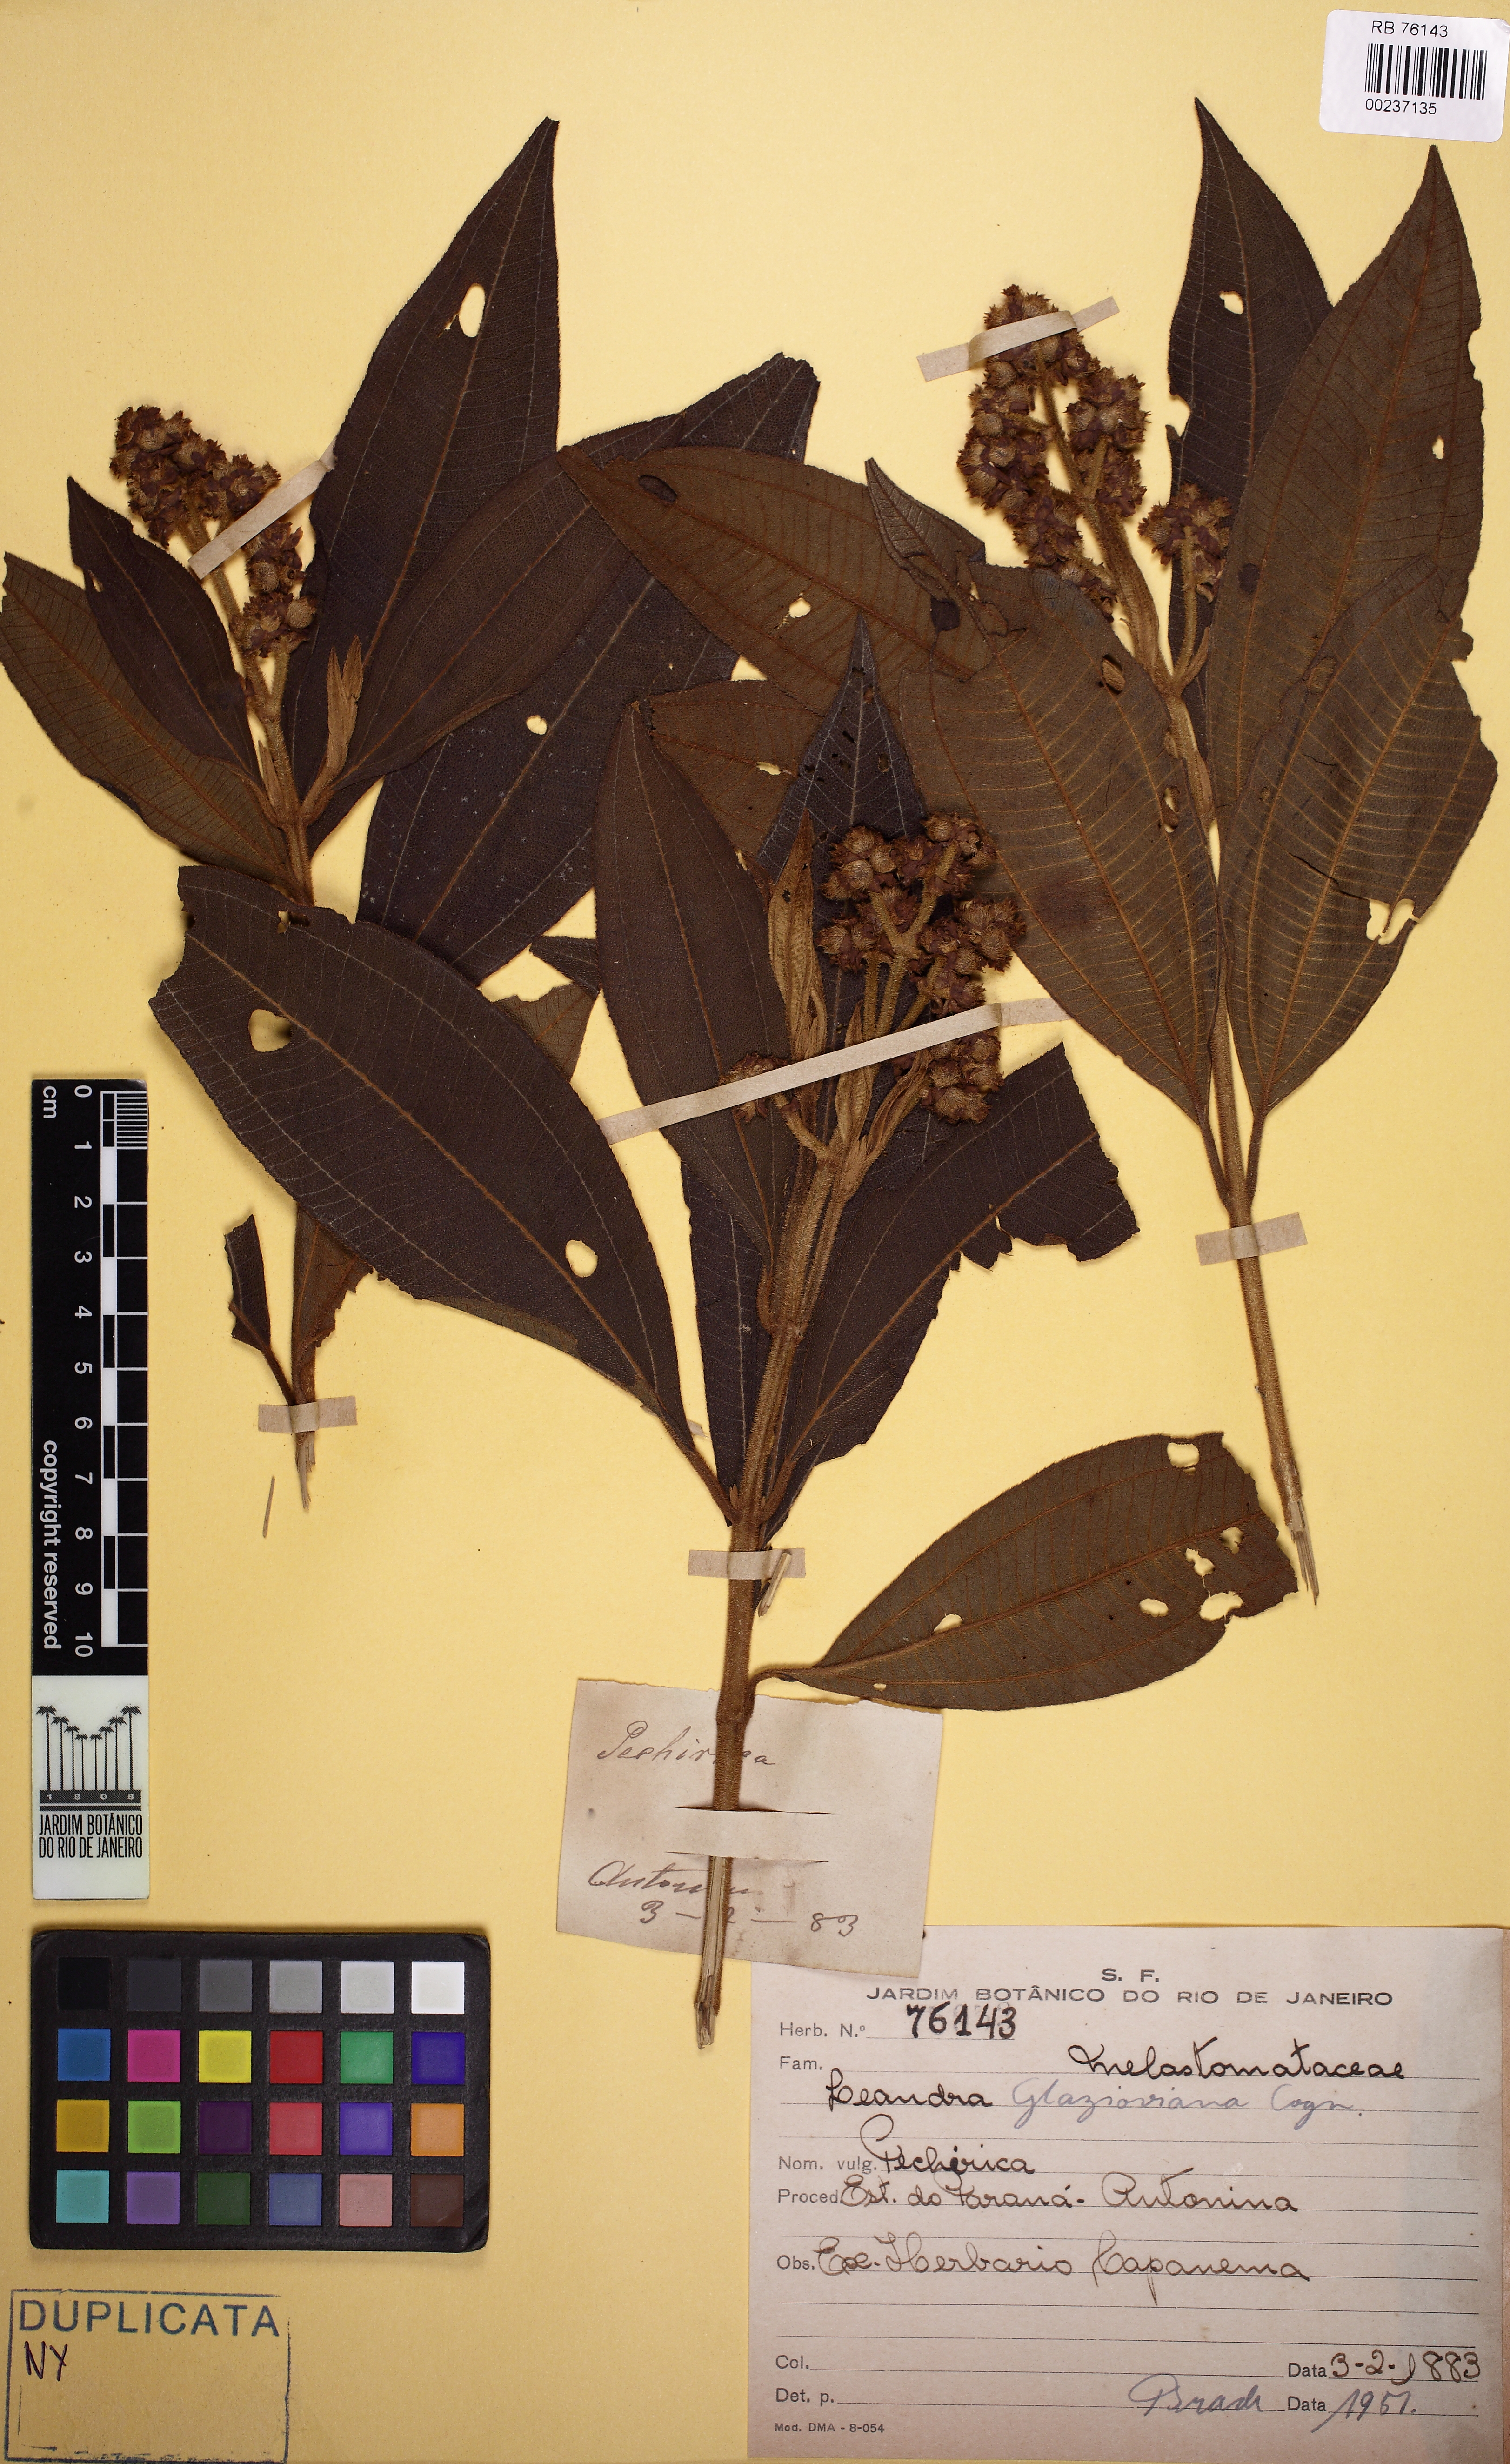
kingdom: Plantae
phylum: Tracheophyta
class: Magnoliopsida
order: Myrtales
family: Melastomataceae
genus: Miconia
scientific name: Miconia pubistyla
